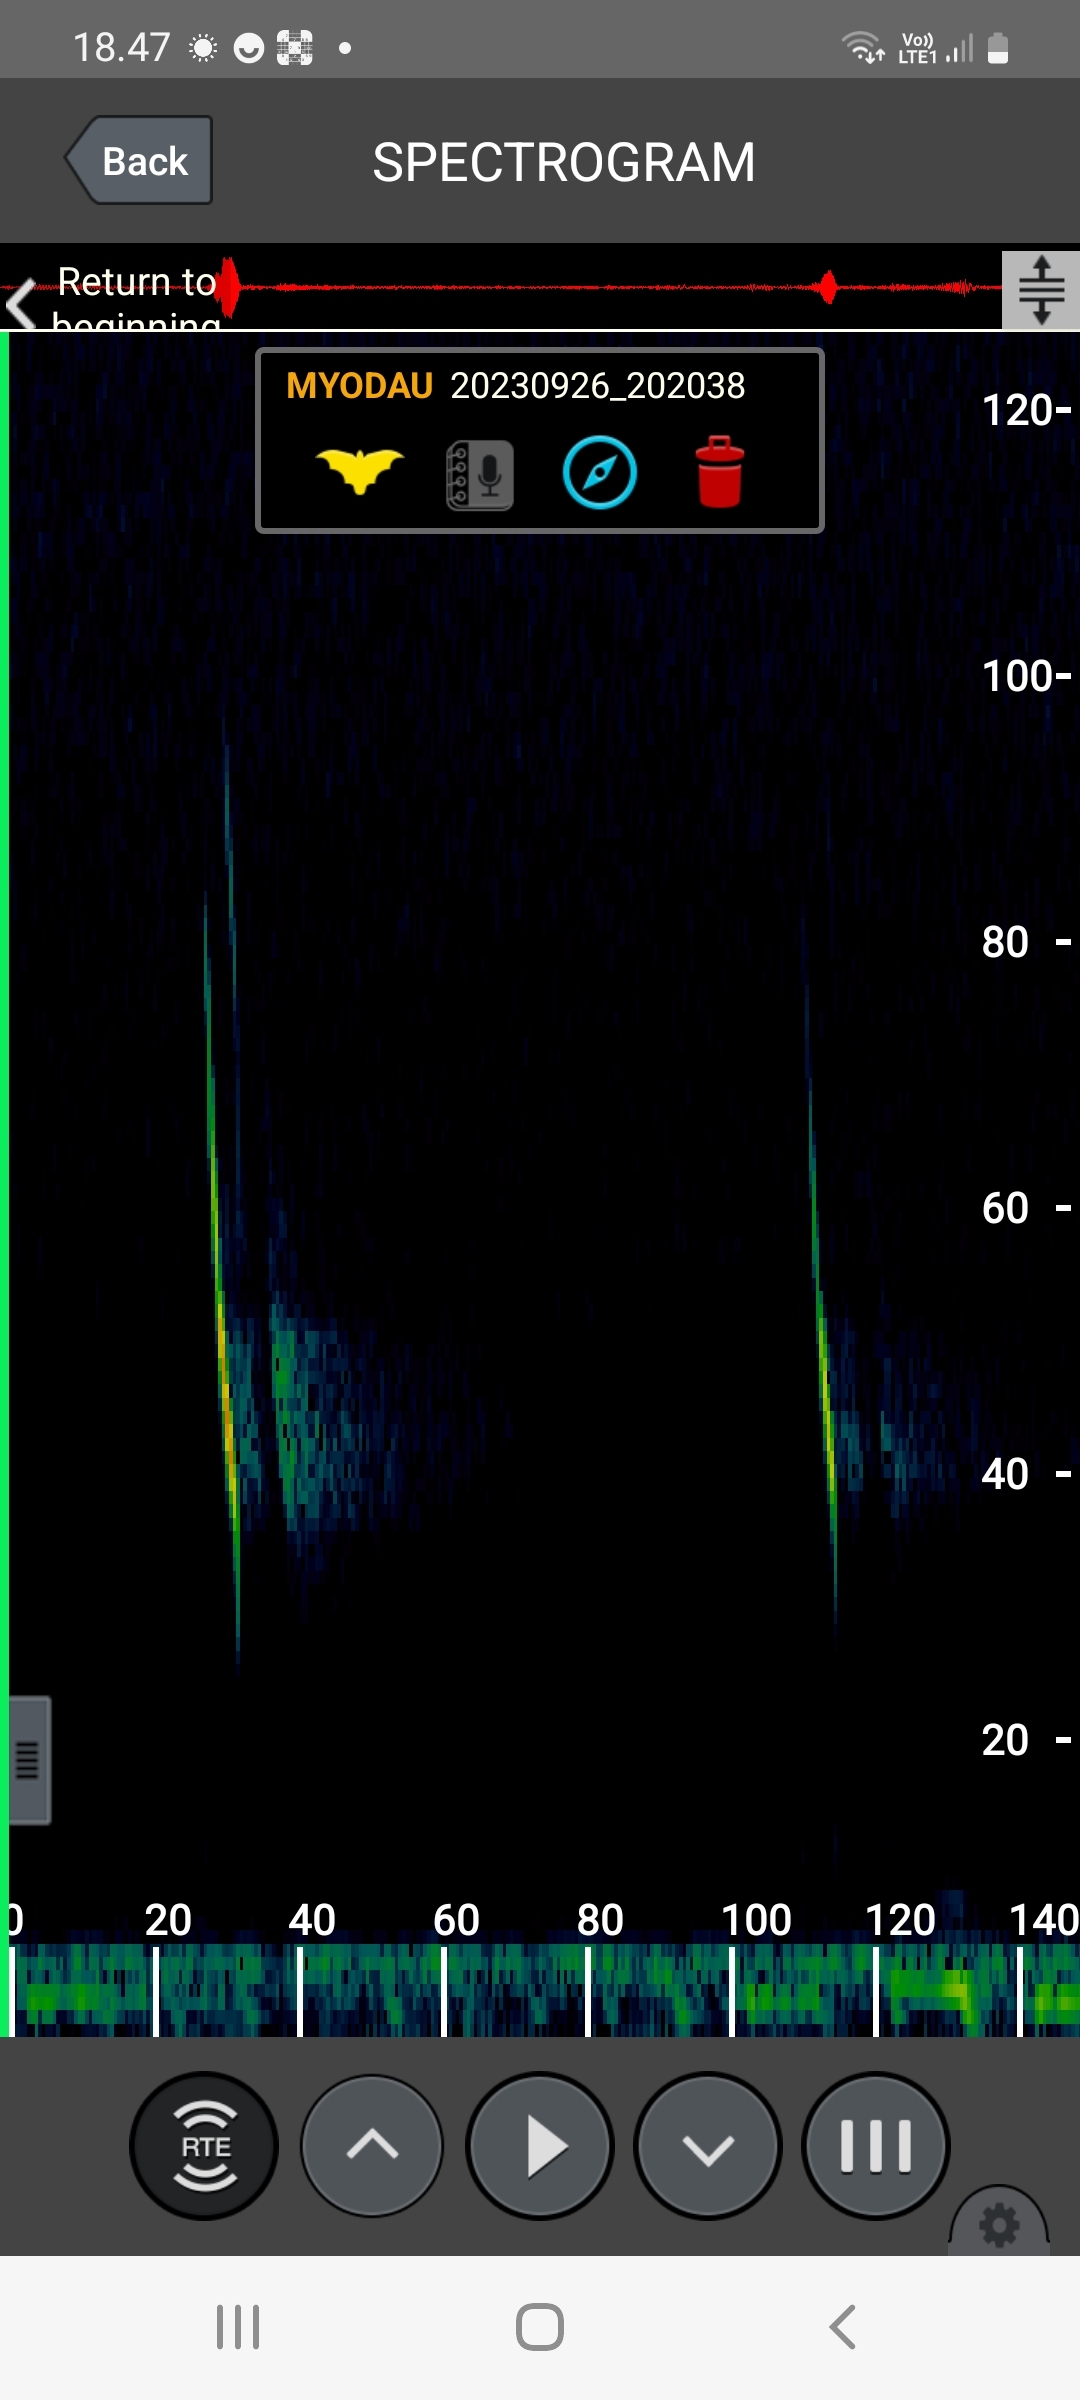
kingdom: Animalia
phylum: Chordata
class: Mammalia
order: Chiroptera
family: Vespertilionidae
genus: Myotis
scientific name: Myotis daubentonii
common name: Vandflagermus
